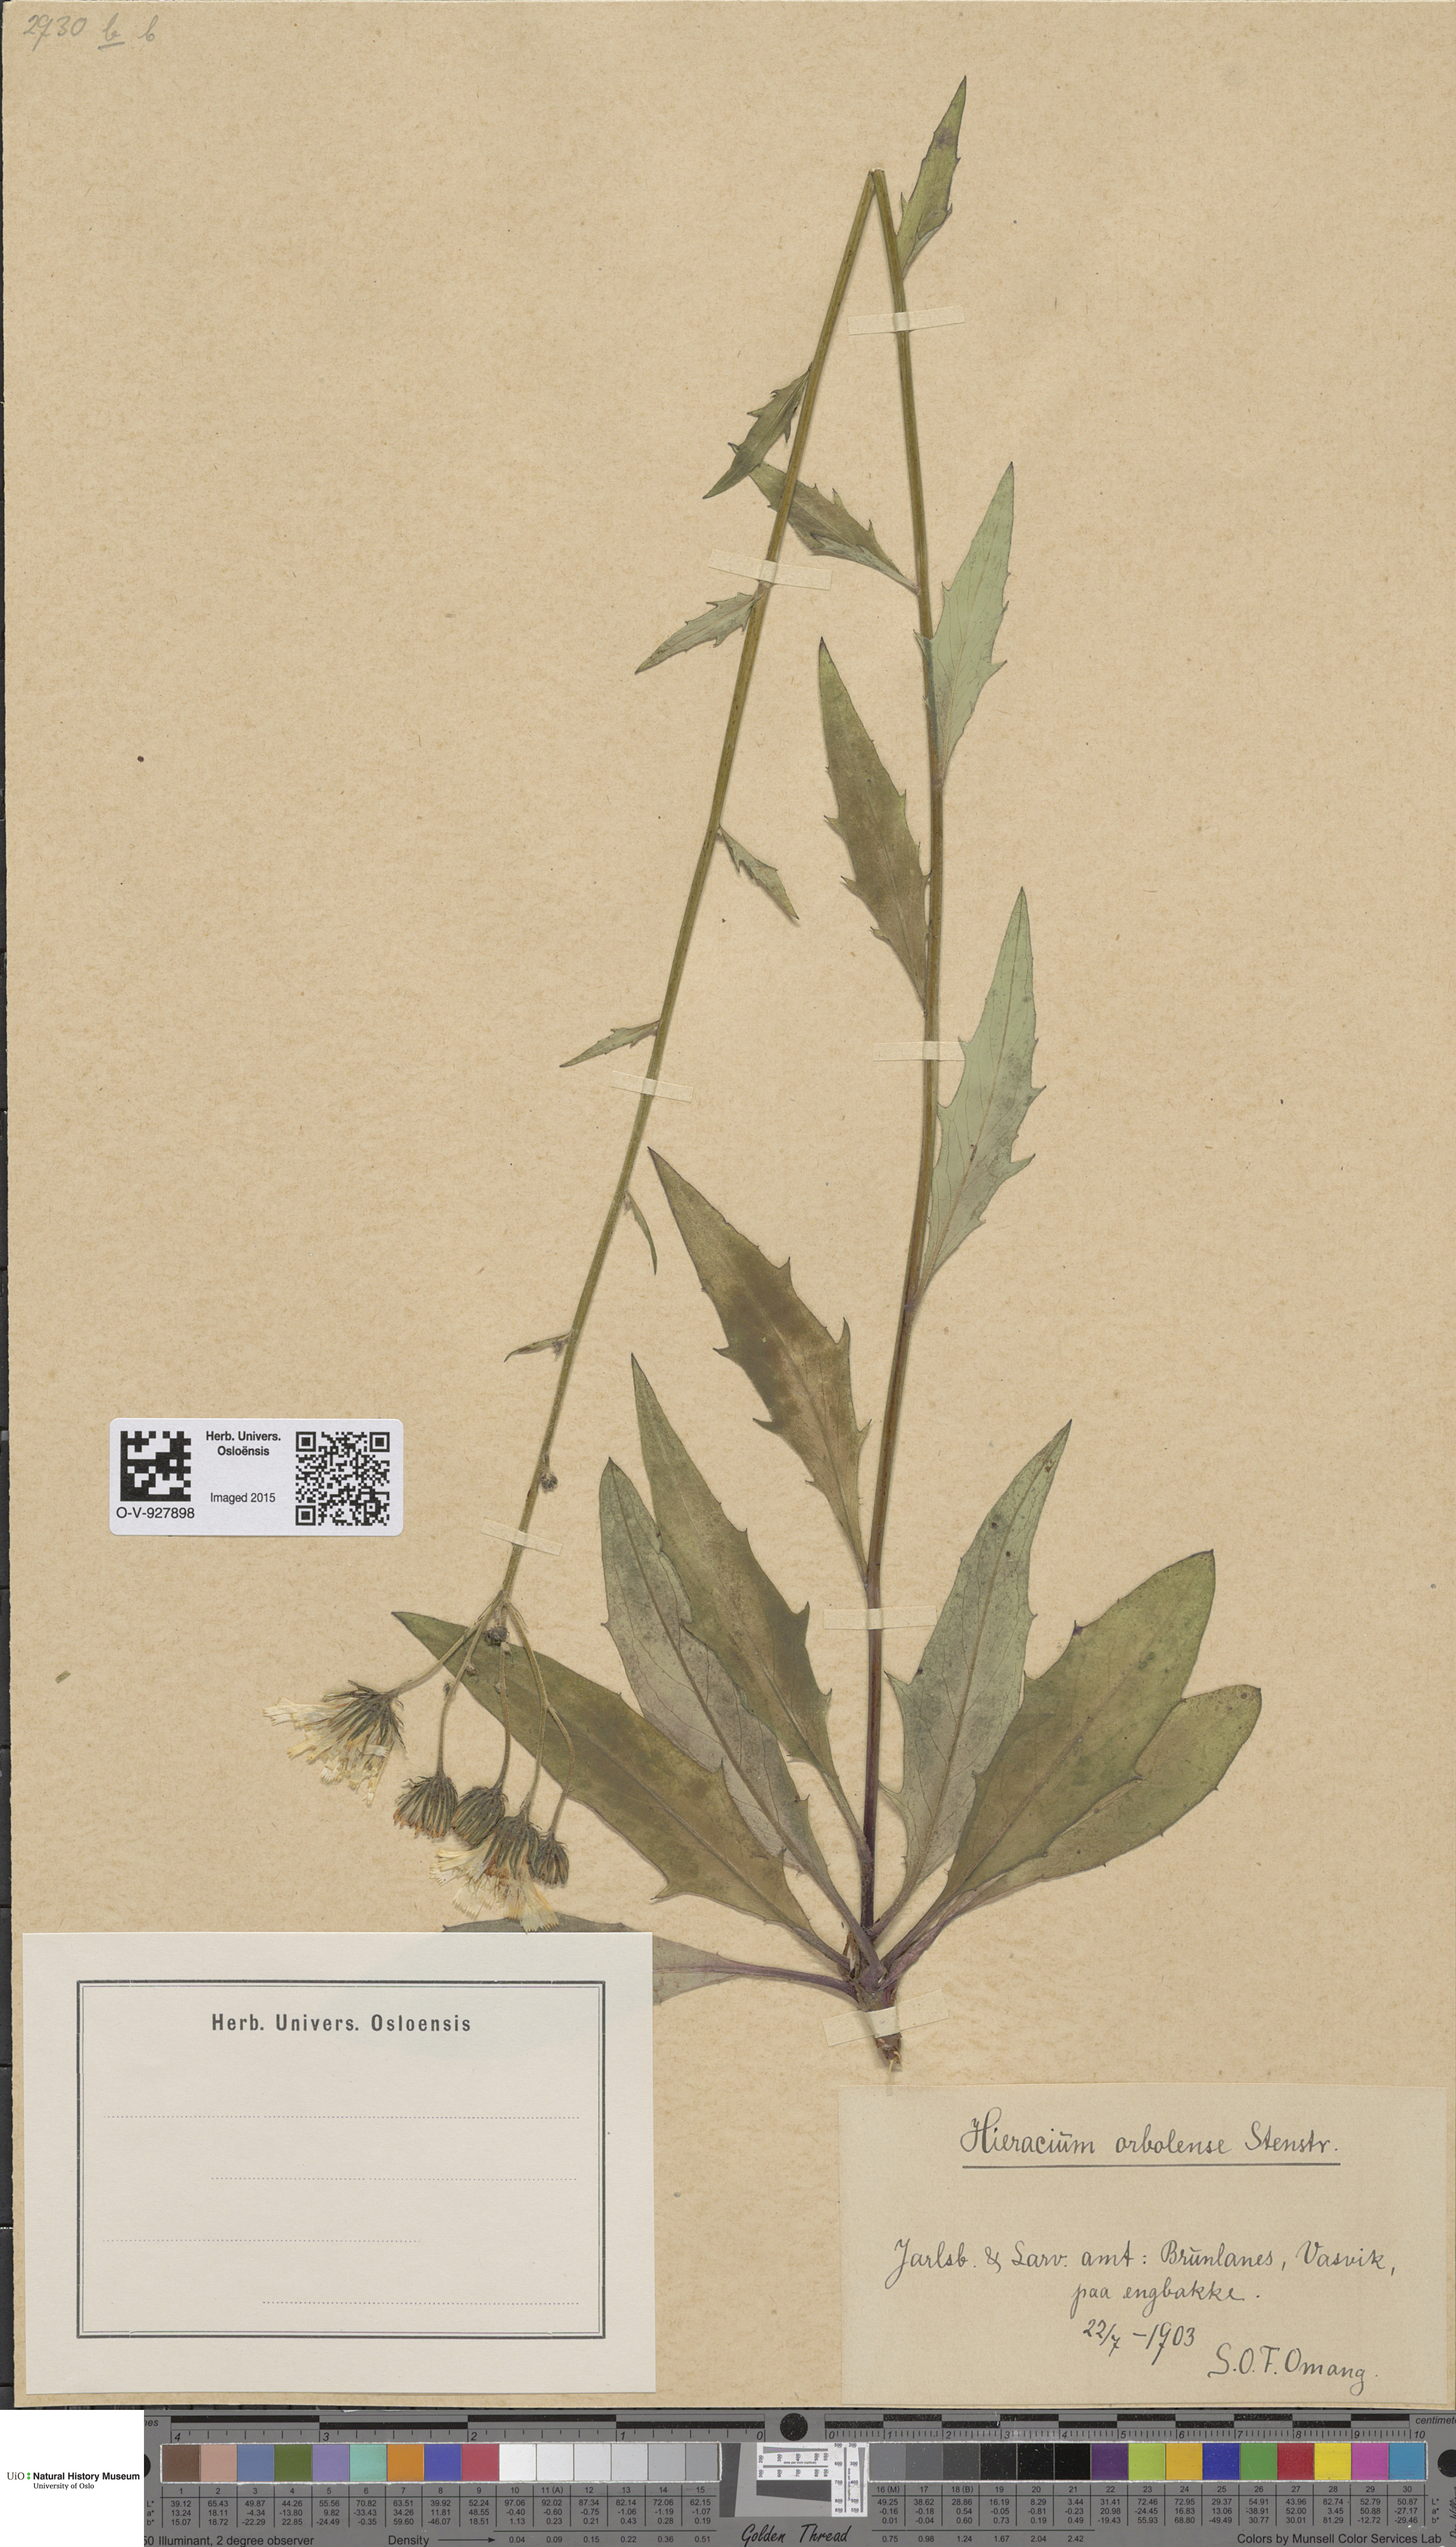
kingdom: Plantae
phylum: Tracheophyta
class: Magnoliopsida
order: Asterales
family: Asteraceae
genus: Hieracium
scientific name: Hieracium orbolense
